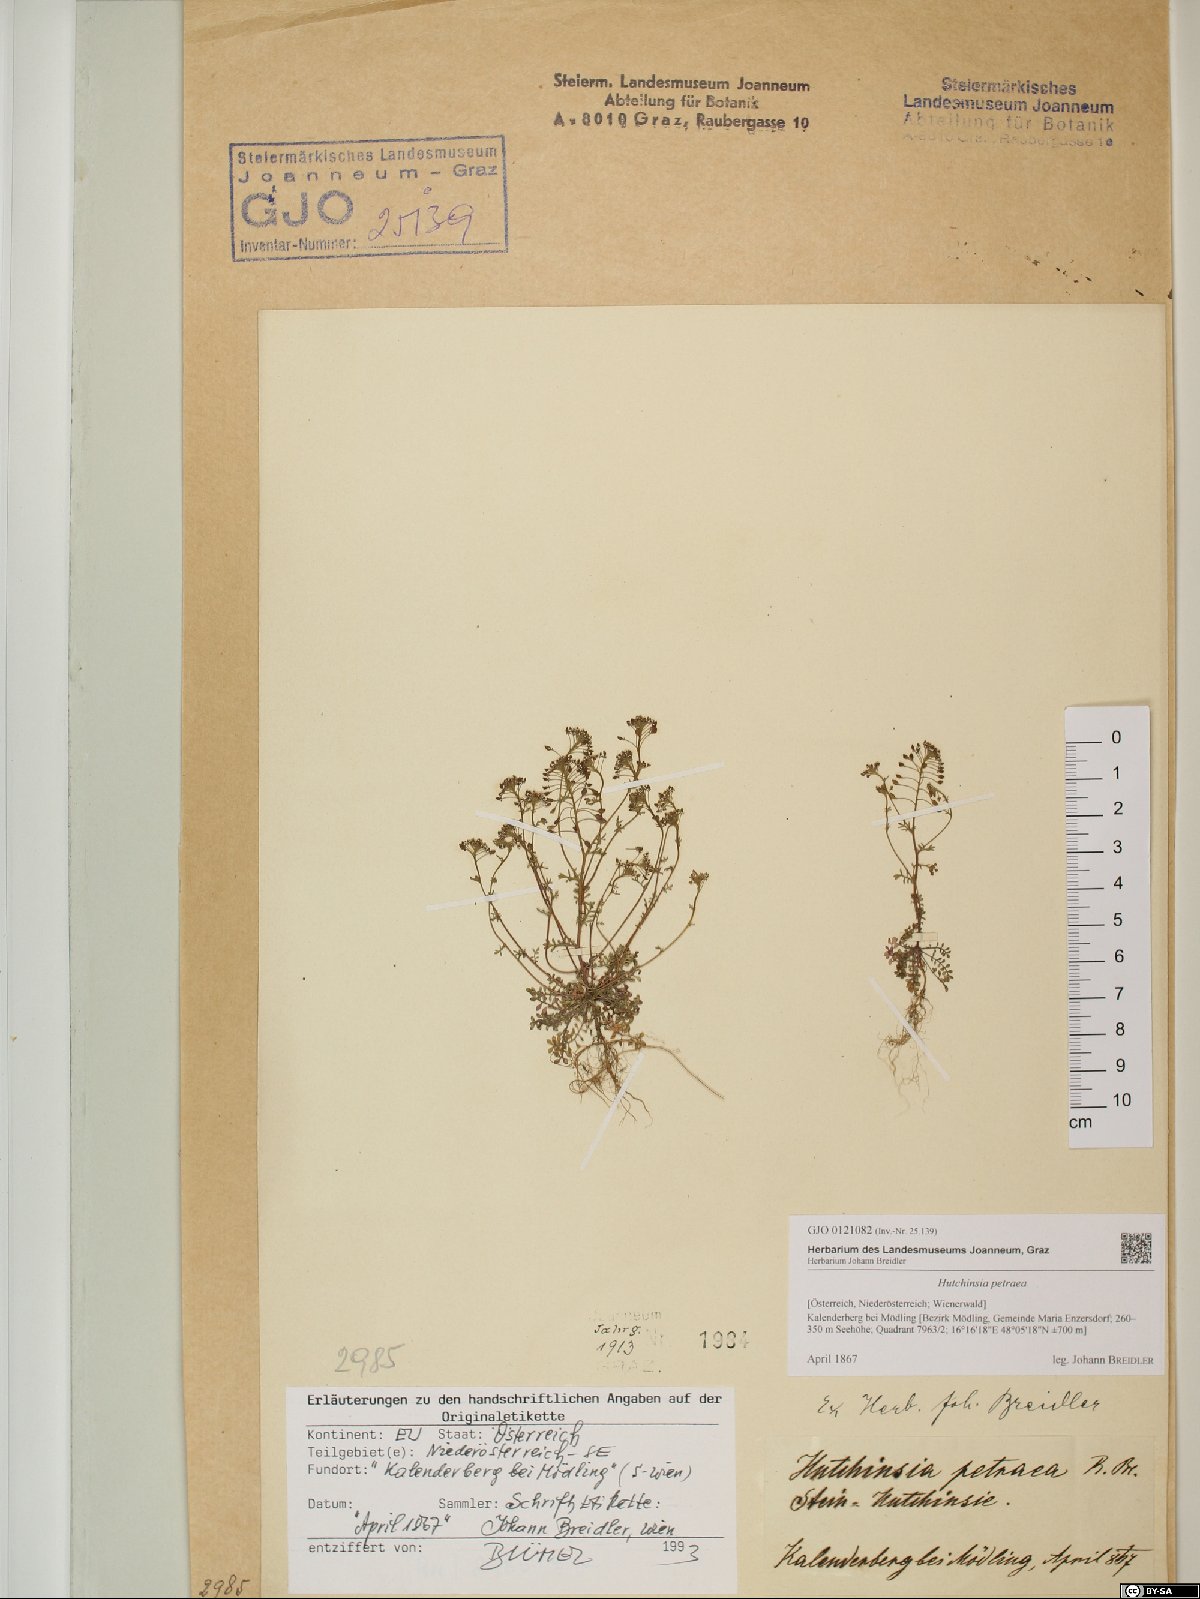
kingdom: Plantae
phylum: Tracheophyta
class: Magnoliopsida
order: Brassicales
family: Brassicaceae
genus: Hornungia
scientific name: Hornungia petraea
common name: Hutchinsia
